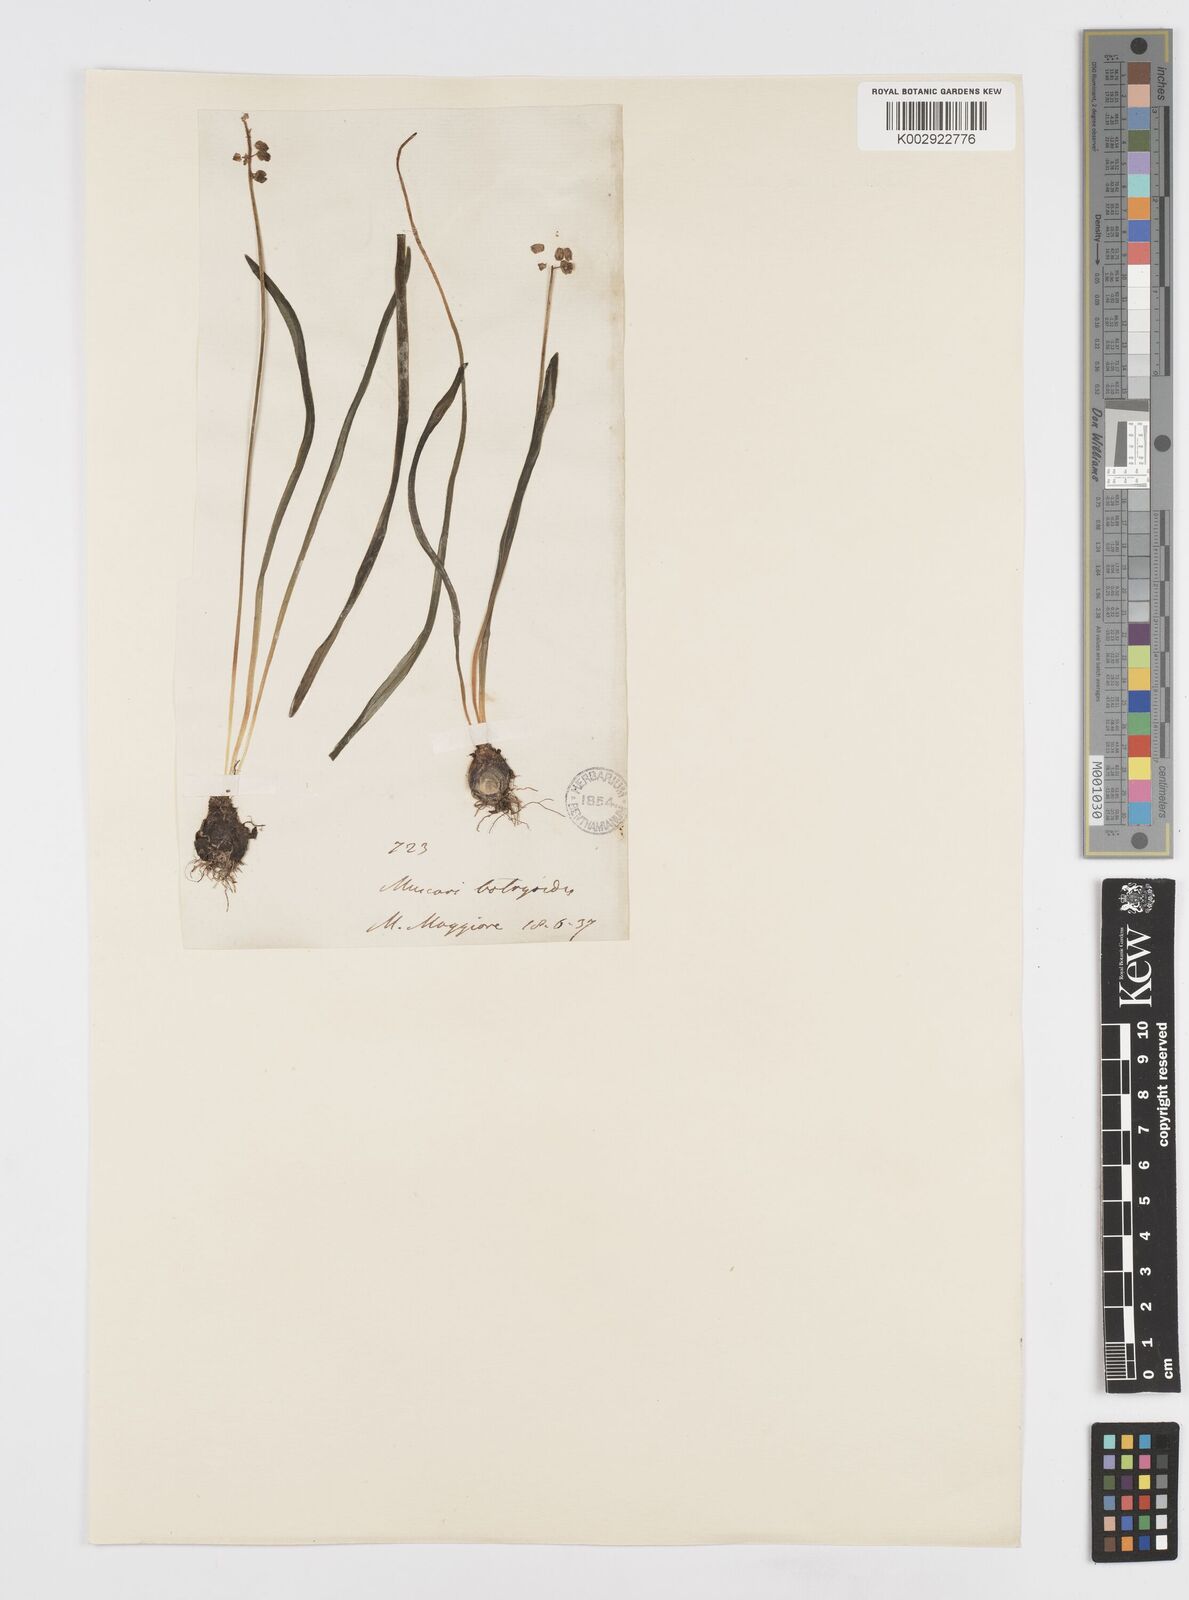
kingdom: Plantae
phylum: Tracheophyta
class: Liliopsida
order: Asparagales
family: Asparagaceae
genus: Muscari
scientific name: Muscari botryoides
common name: Compact grape-hyacinth
